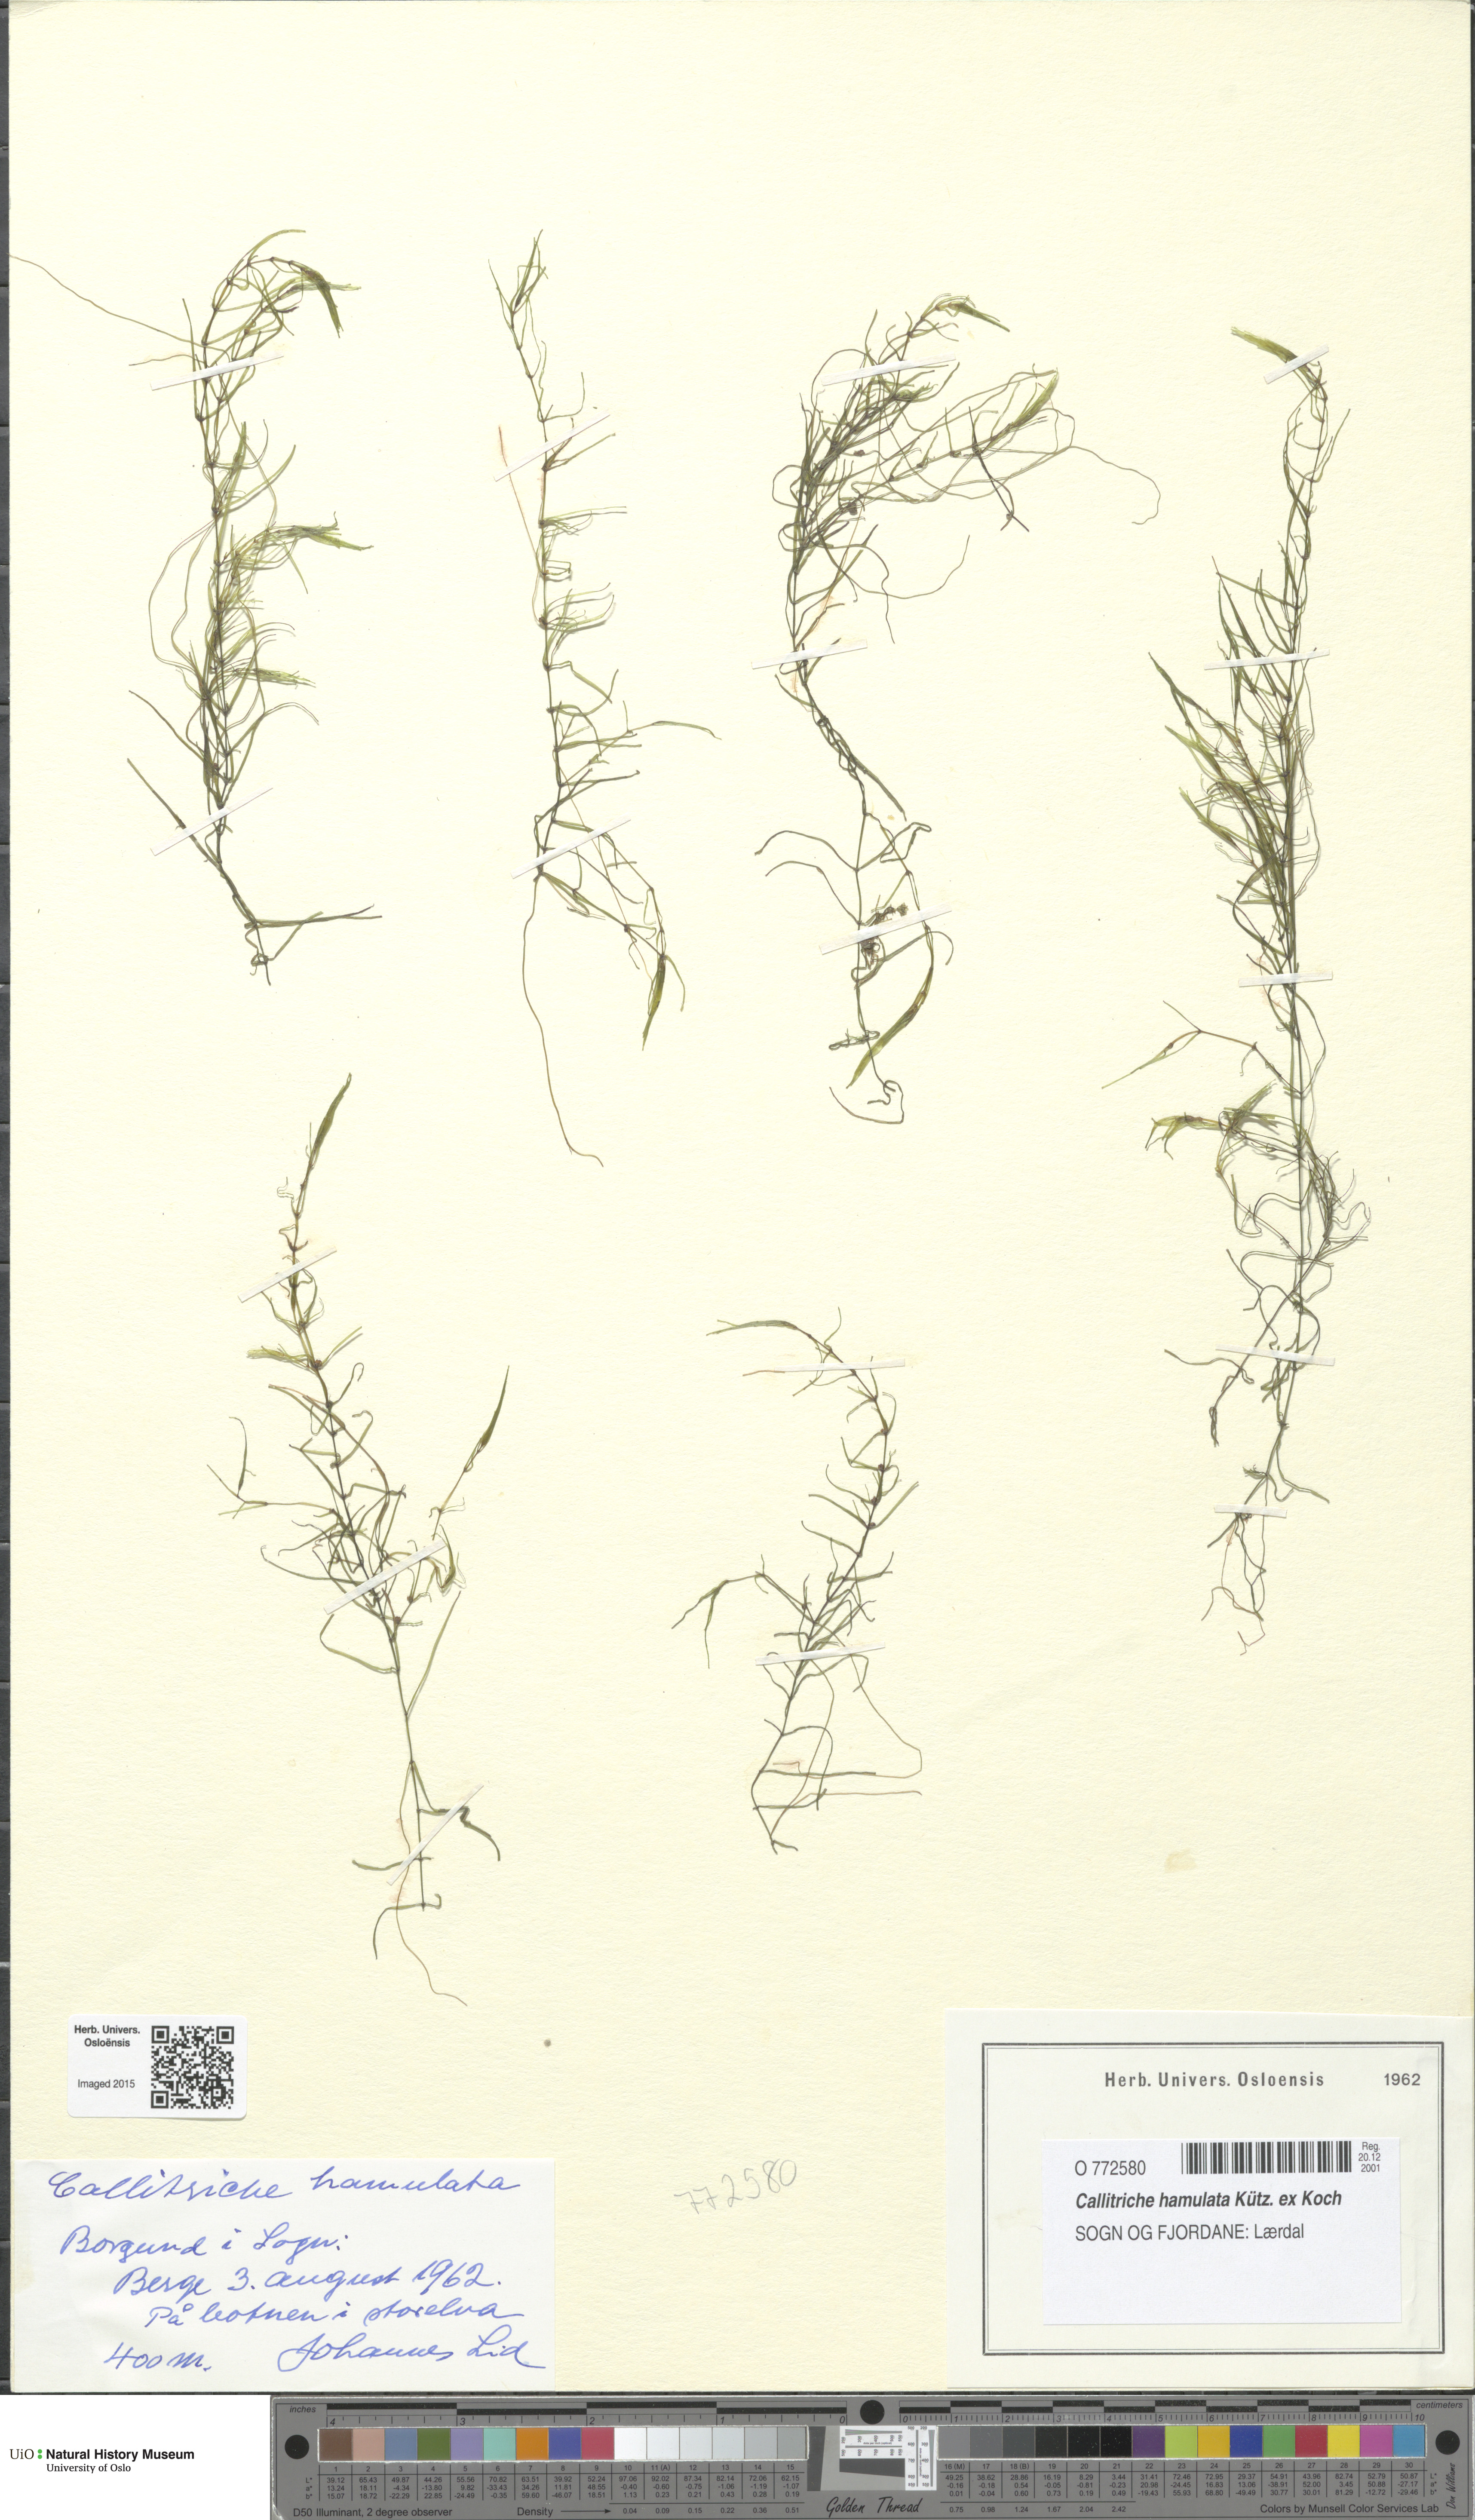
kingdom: Plantae
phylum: Tracheophyta
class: Magnoliopsida
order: Lamiales
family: Plantaginaceae
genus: Callitriche
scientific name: Callitriche hamulata
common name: Intermediate water-starwort
